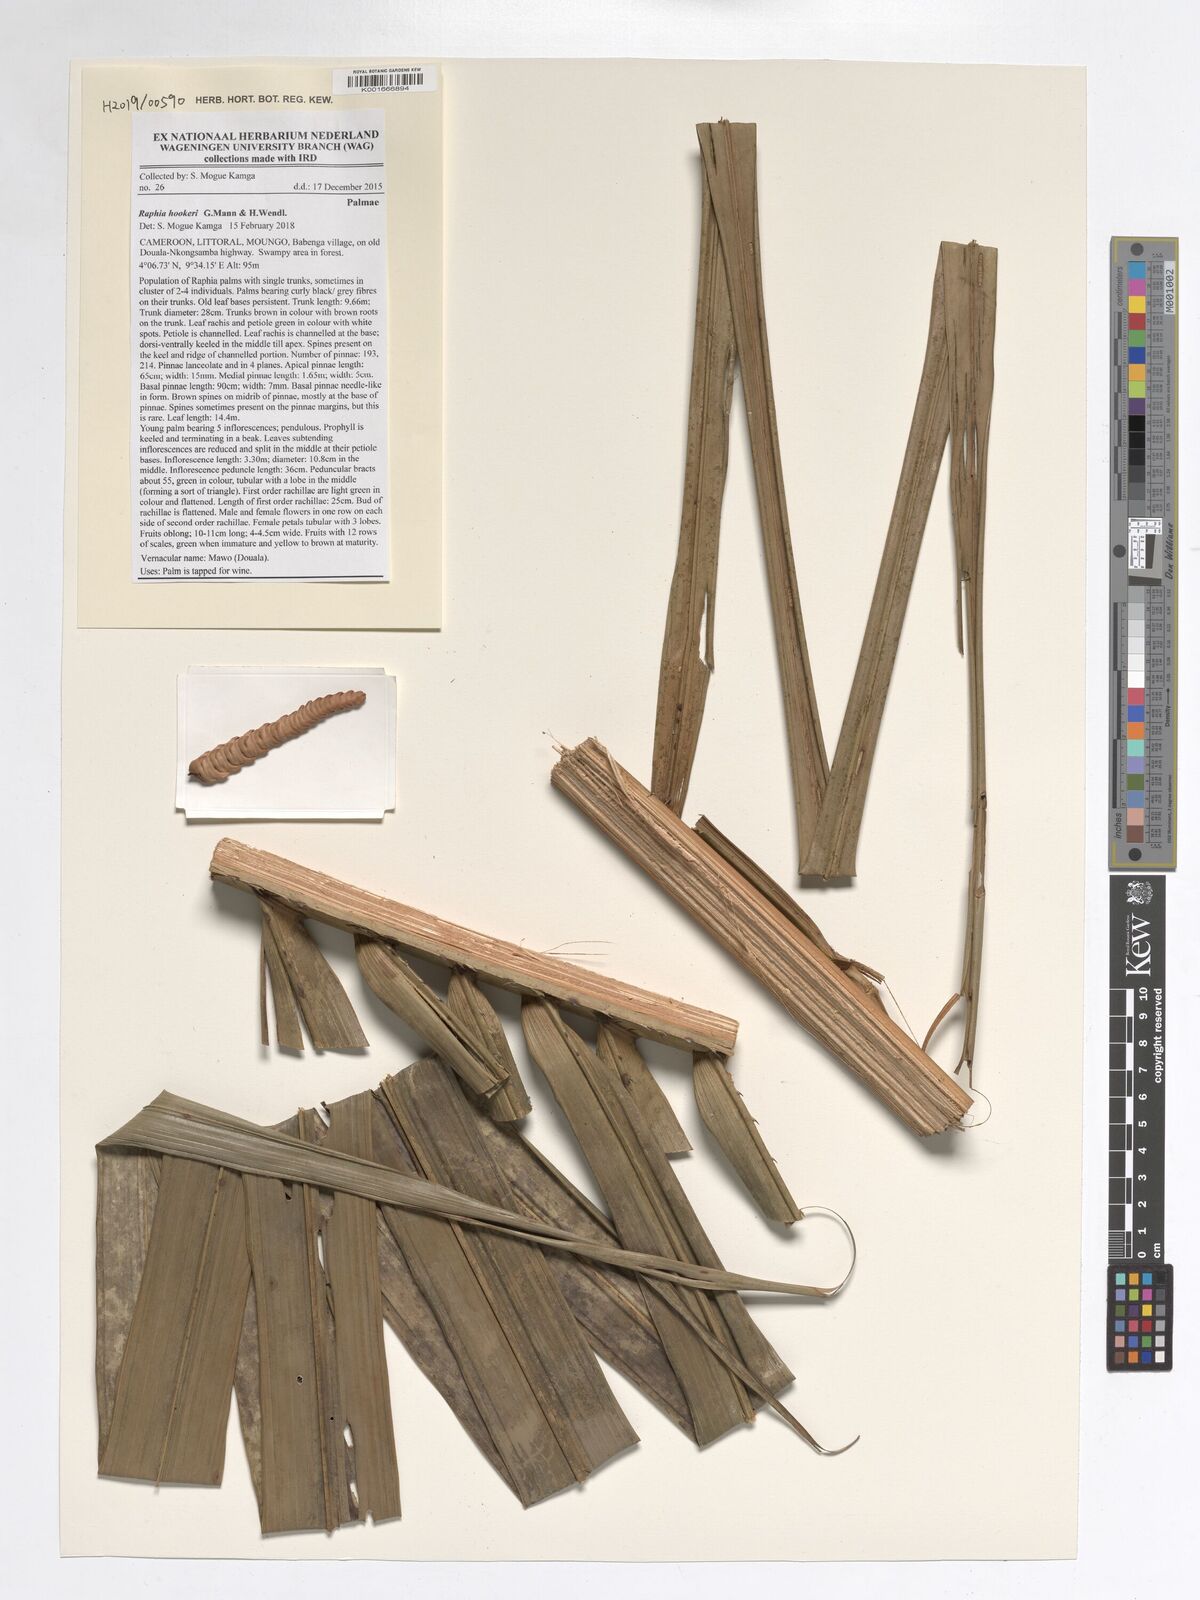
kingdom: Plantae
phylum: Tracheophyta
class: Liliopsida
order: Arecales
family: Arecaceae
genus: Raphia
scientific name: Raphia hookeri
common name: Wine palm
